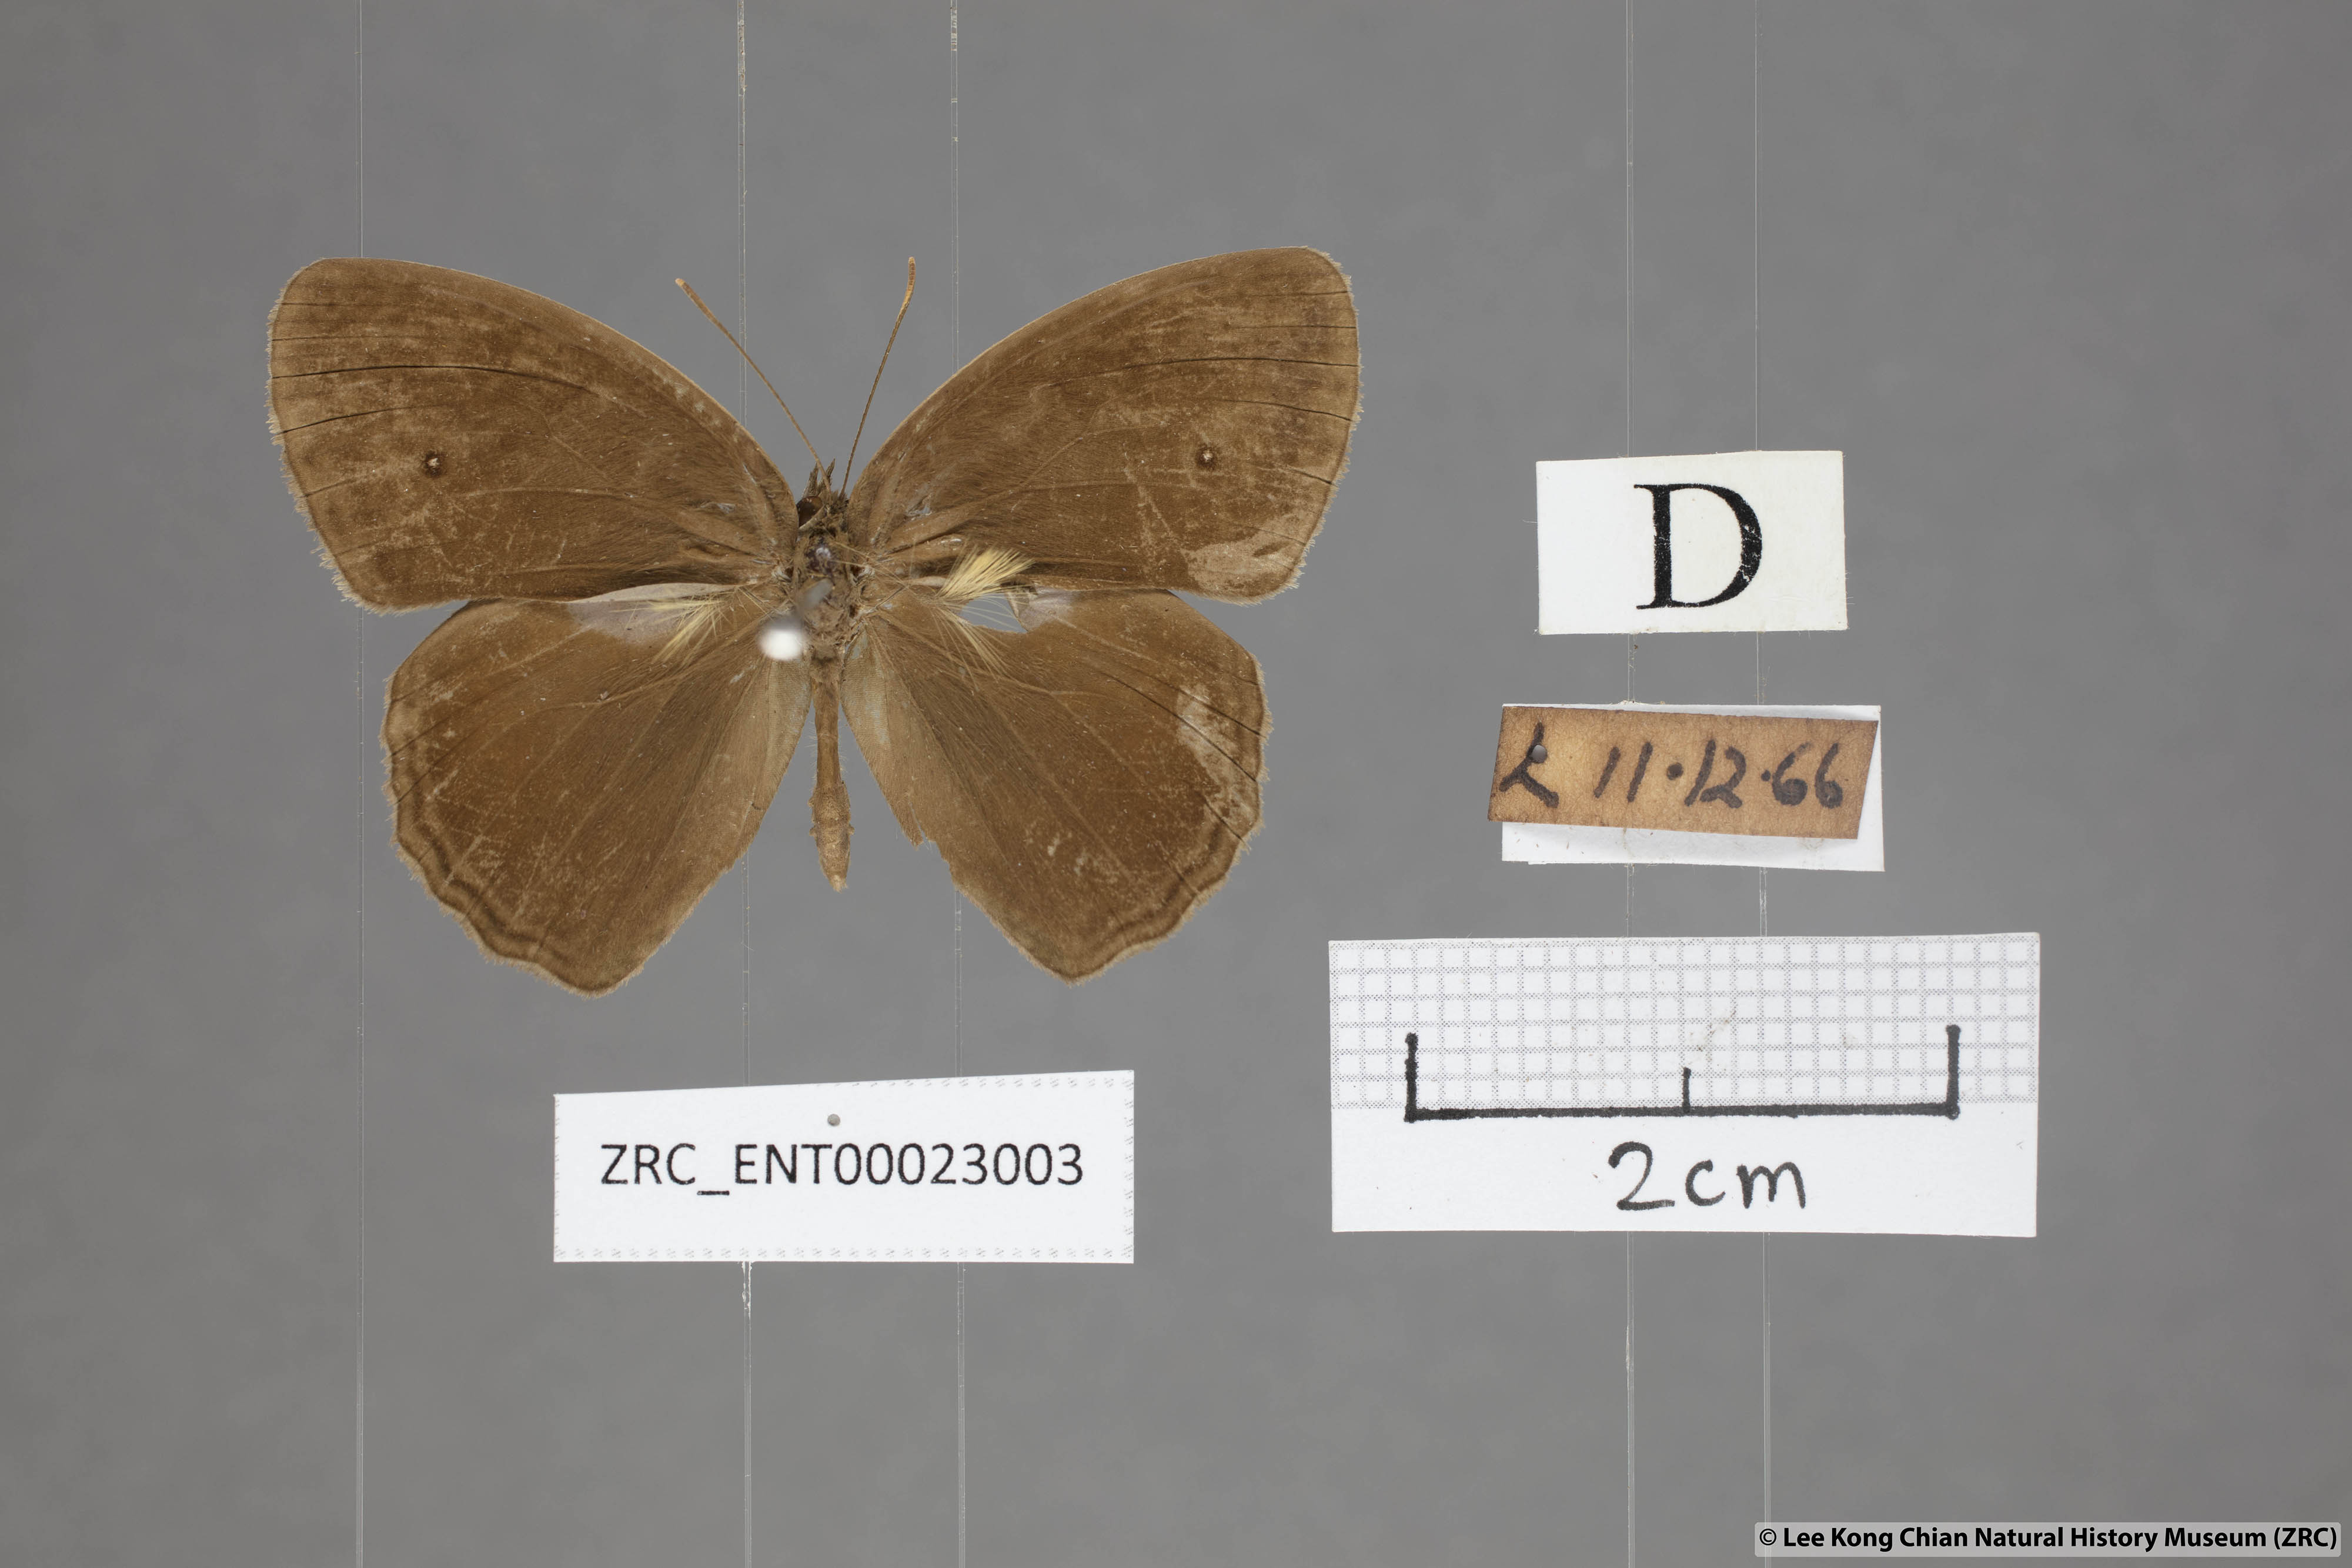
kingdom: Animalia
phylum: Arthropoda
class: Insecta
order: Lepidoptera
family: Nymphalidae
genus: Mycalesis
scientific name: Mycalesis perseus
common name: Dingy bushbrown
